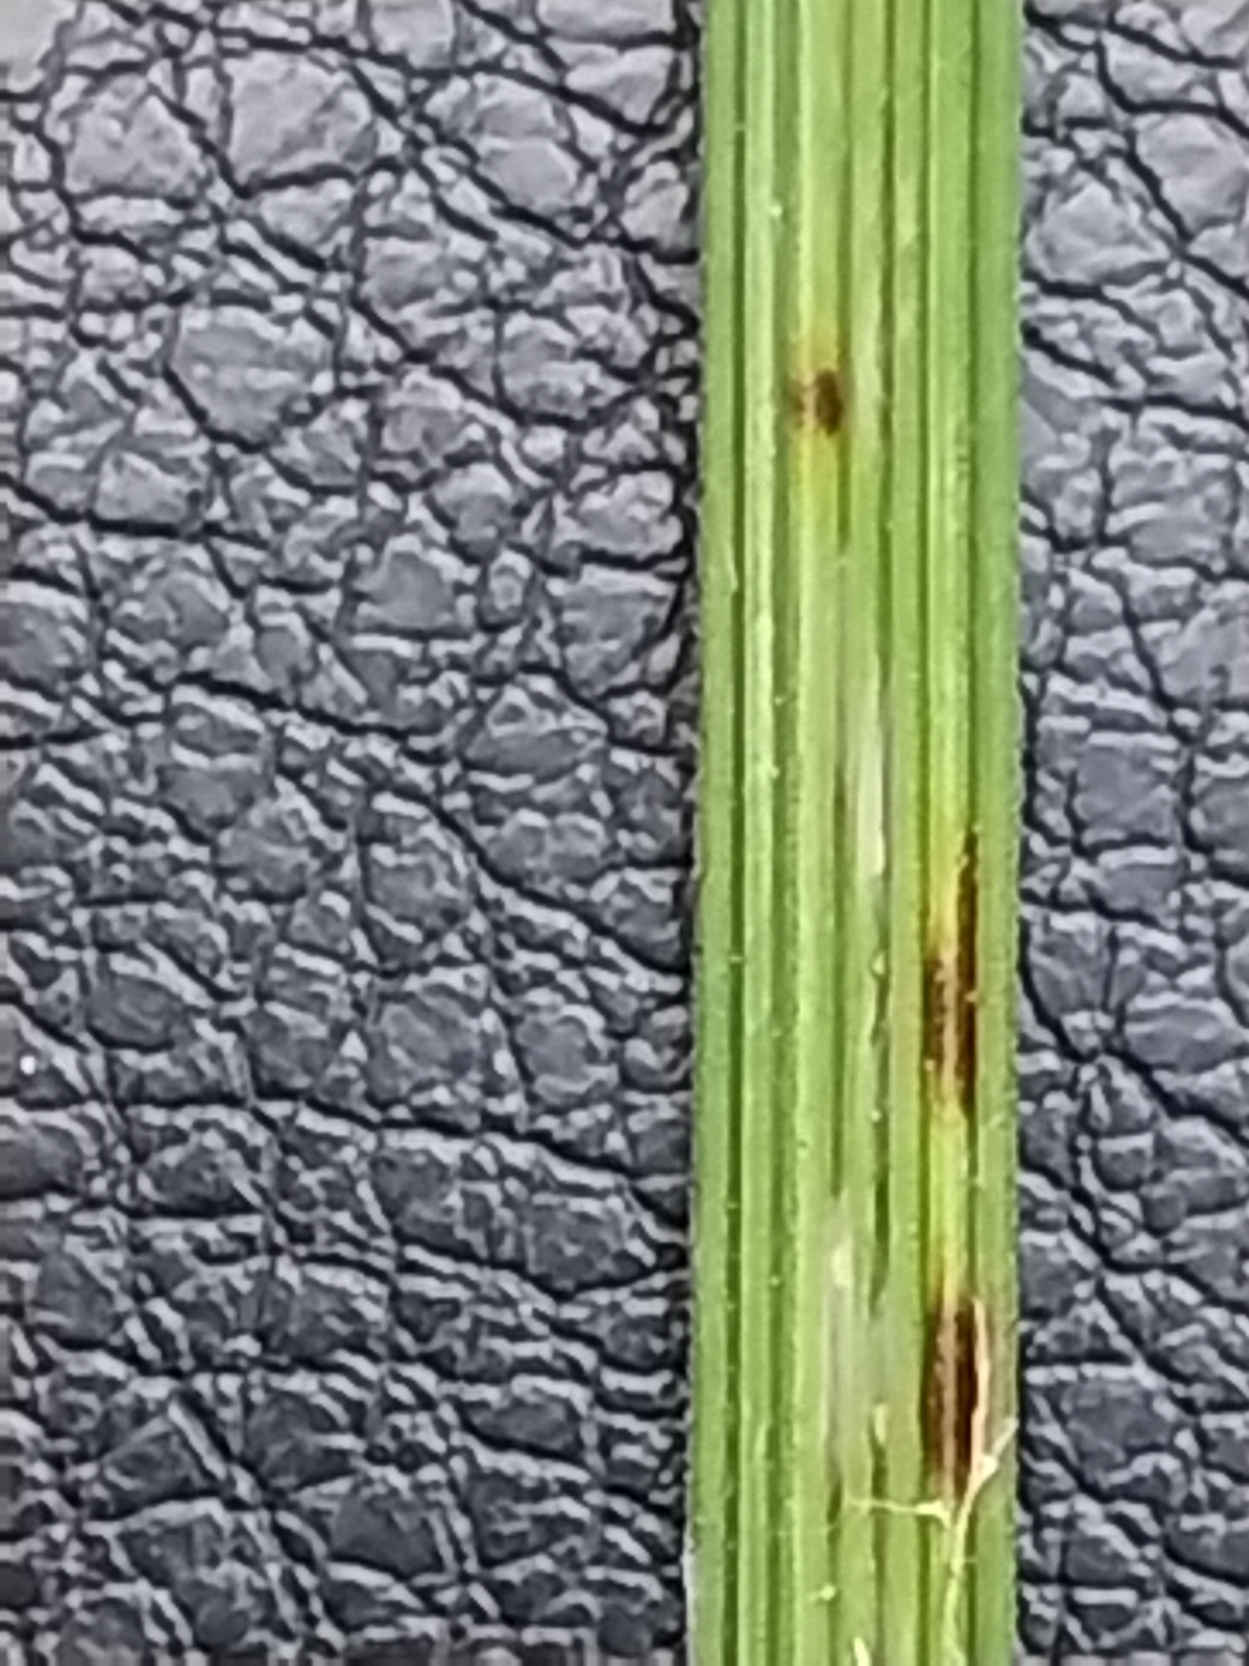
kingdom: Plantae
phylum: Tracheophyta
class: Liliopsida
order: Poales
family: Poaceae
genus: Deschampsia
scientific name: Deschampsia cespitosa
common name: Mose-bunke
